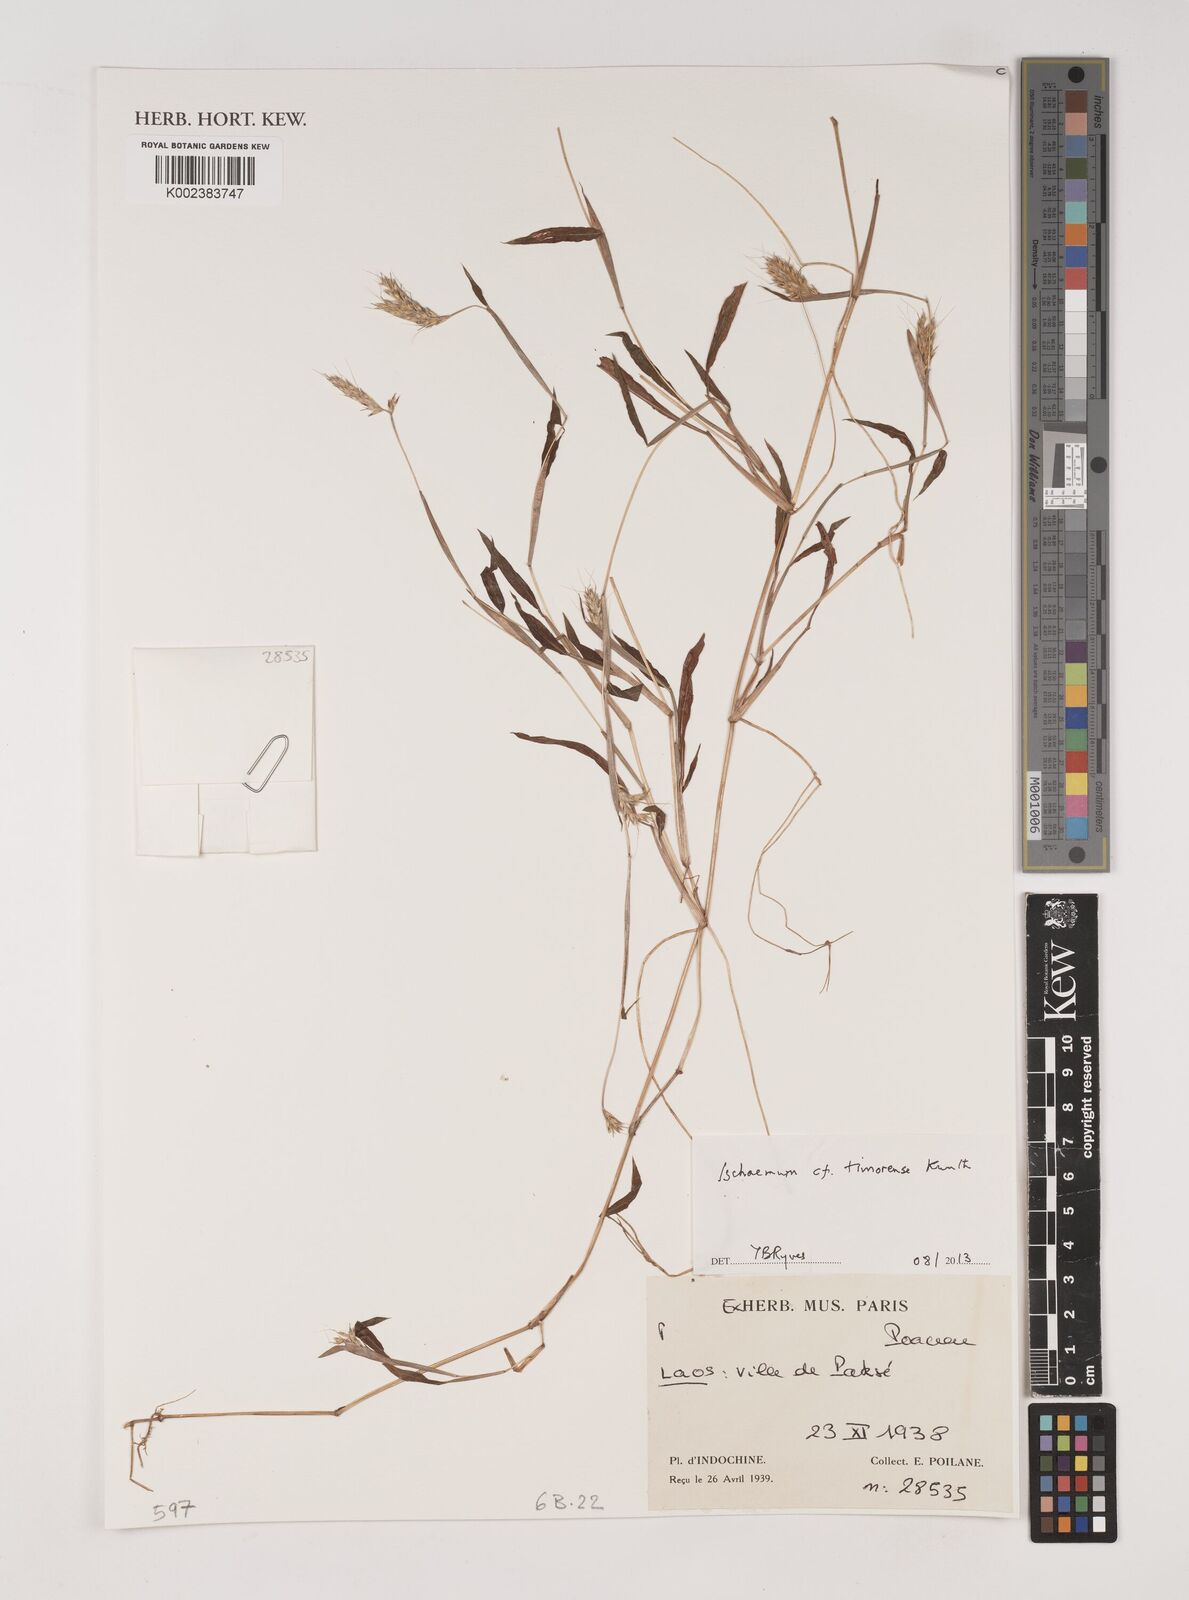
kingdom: Plantae
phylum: Tracheophyta
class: Liliopsida
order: Poales
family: Poaceae
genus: Ischaemum
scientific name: Ischaemum timorense
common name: Stalkleaf murainagrass
